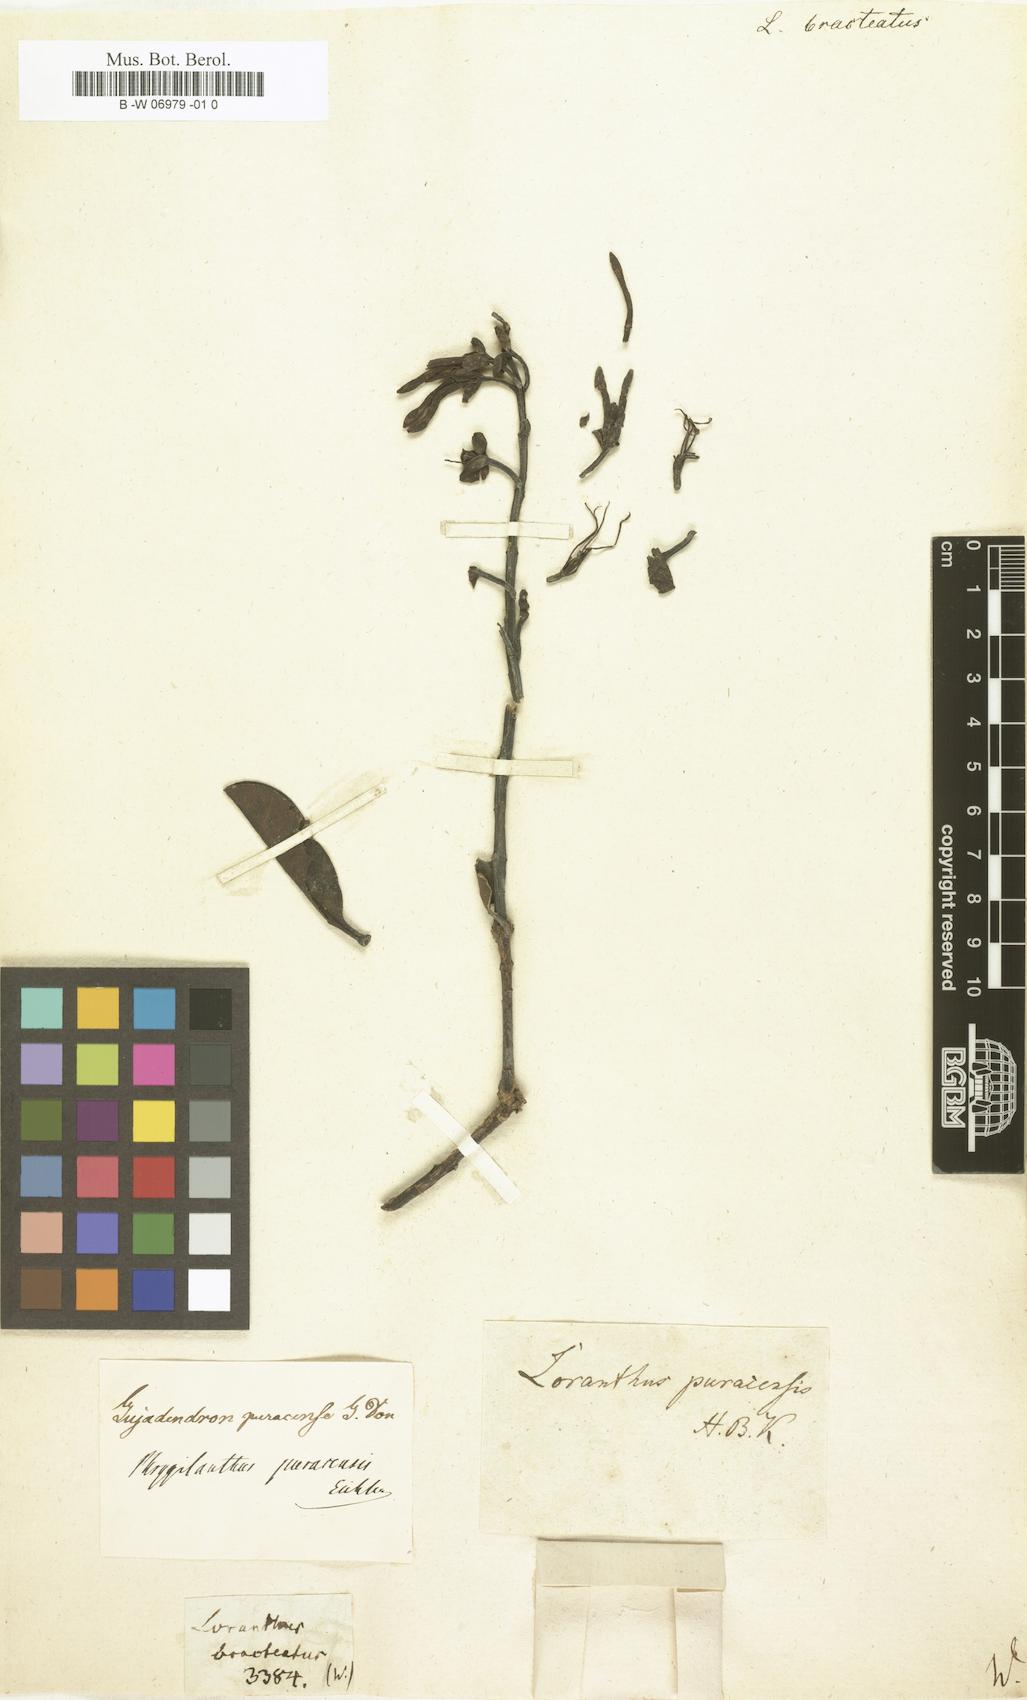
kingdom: Plantae
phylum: Tracheophyta
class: Magnoliopsida
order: Santalales
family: Loranthaceae
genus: Loranthus
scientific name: Loranthus bracteatus
